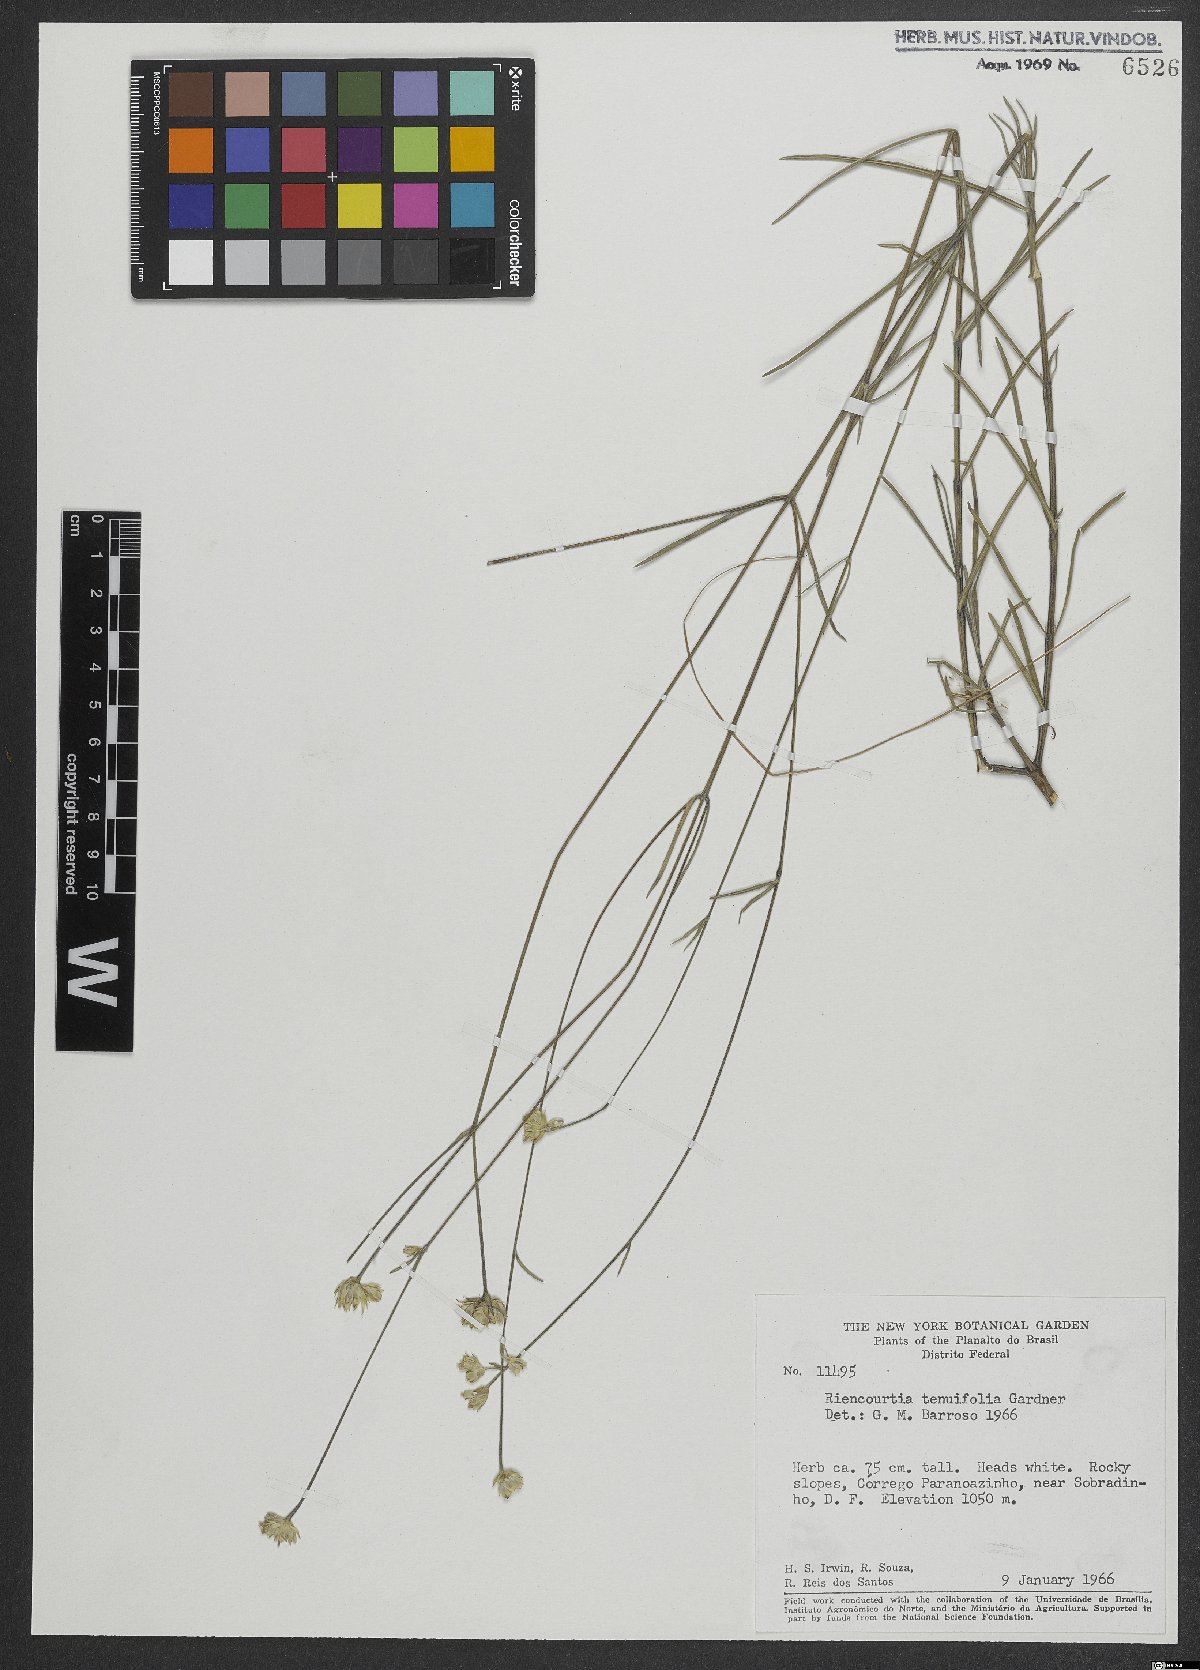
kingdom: Plantae
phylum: Tracheophyta
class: Magnoliopsida
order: Asterales
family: Asteraceae
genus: Riencourtia
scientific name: Riencourtia tenuifolia
